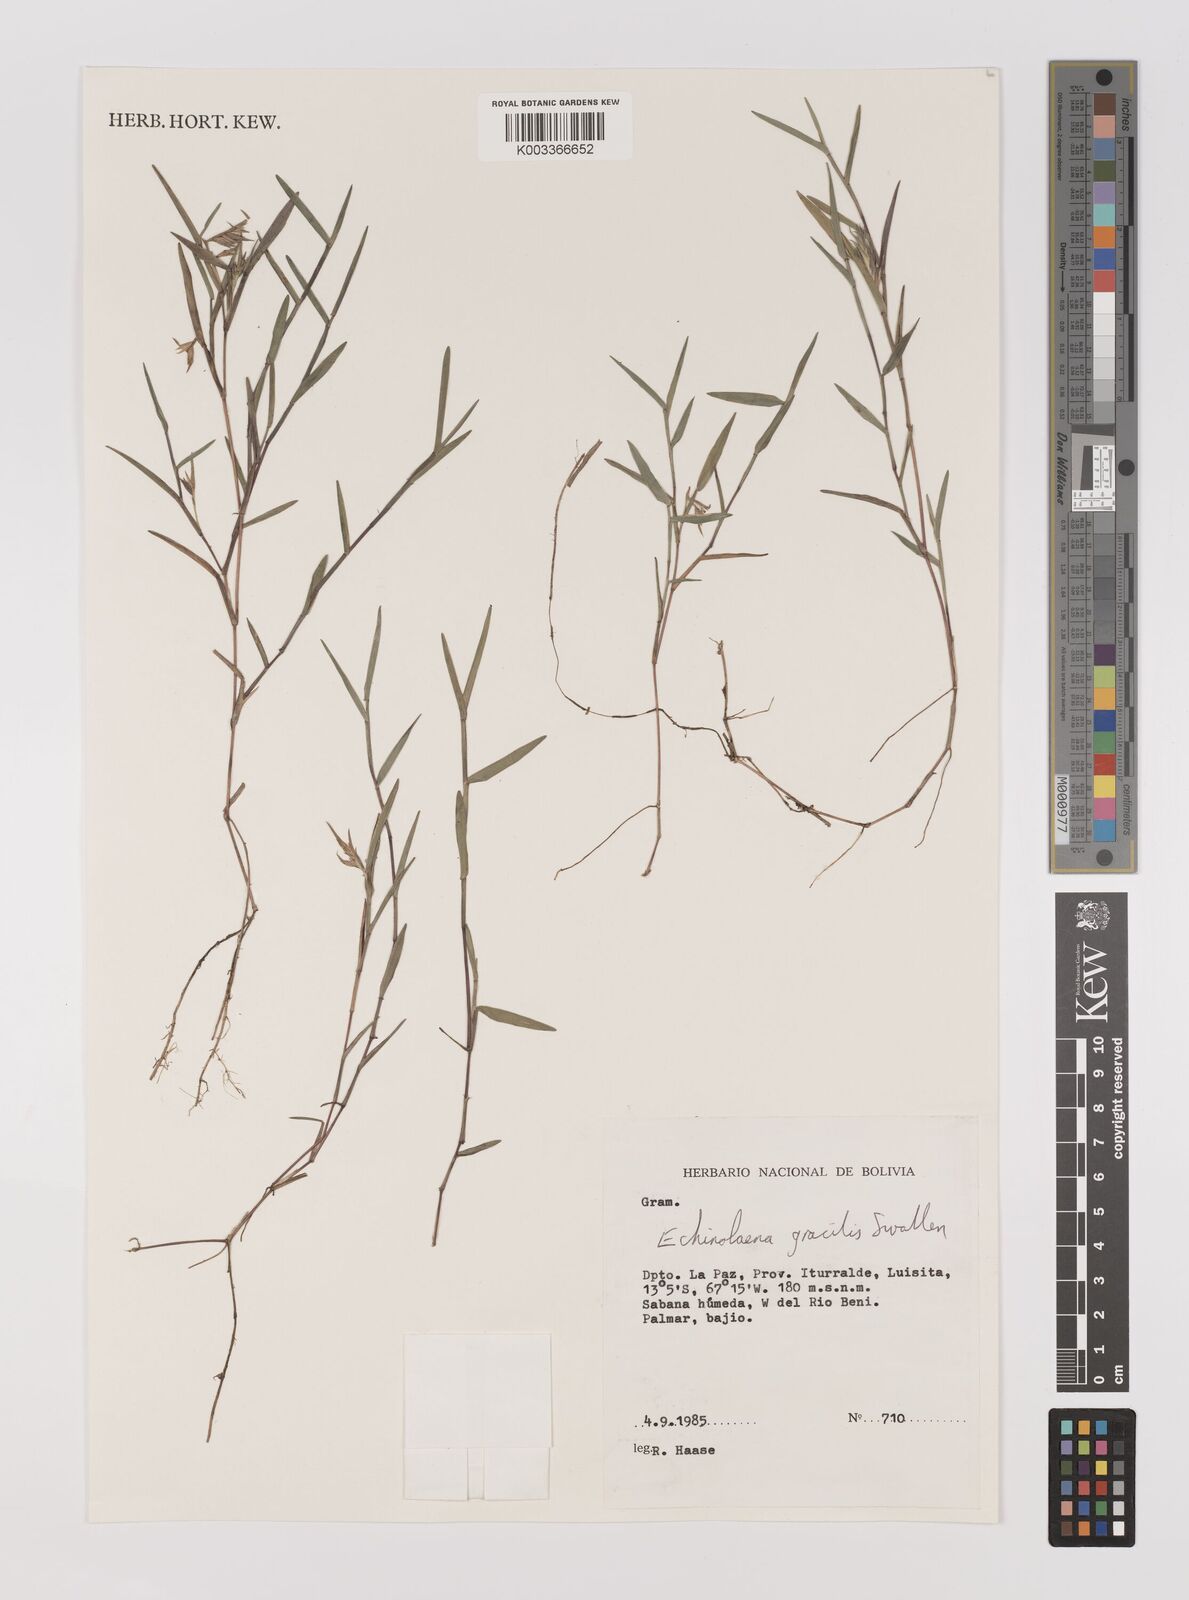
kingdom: Plantae
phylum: Tracheophyta
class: Liliopsida
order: Poales
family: Poaceae
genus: Echinolaena
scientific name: Echinolaena gracilis
